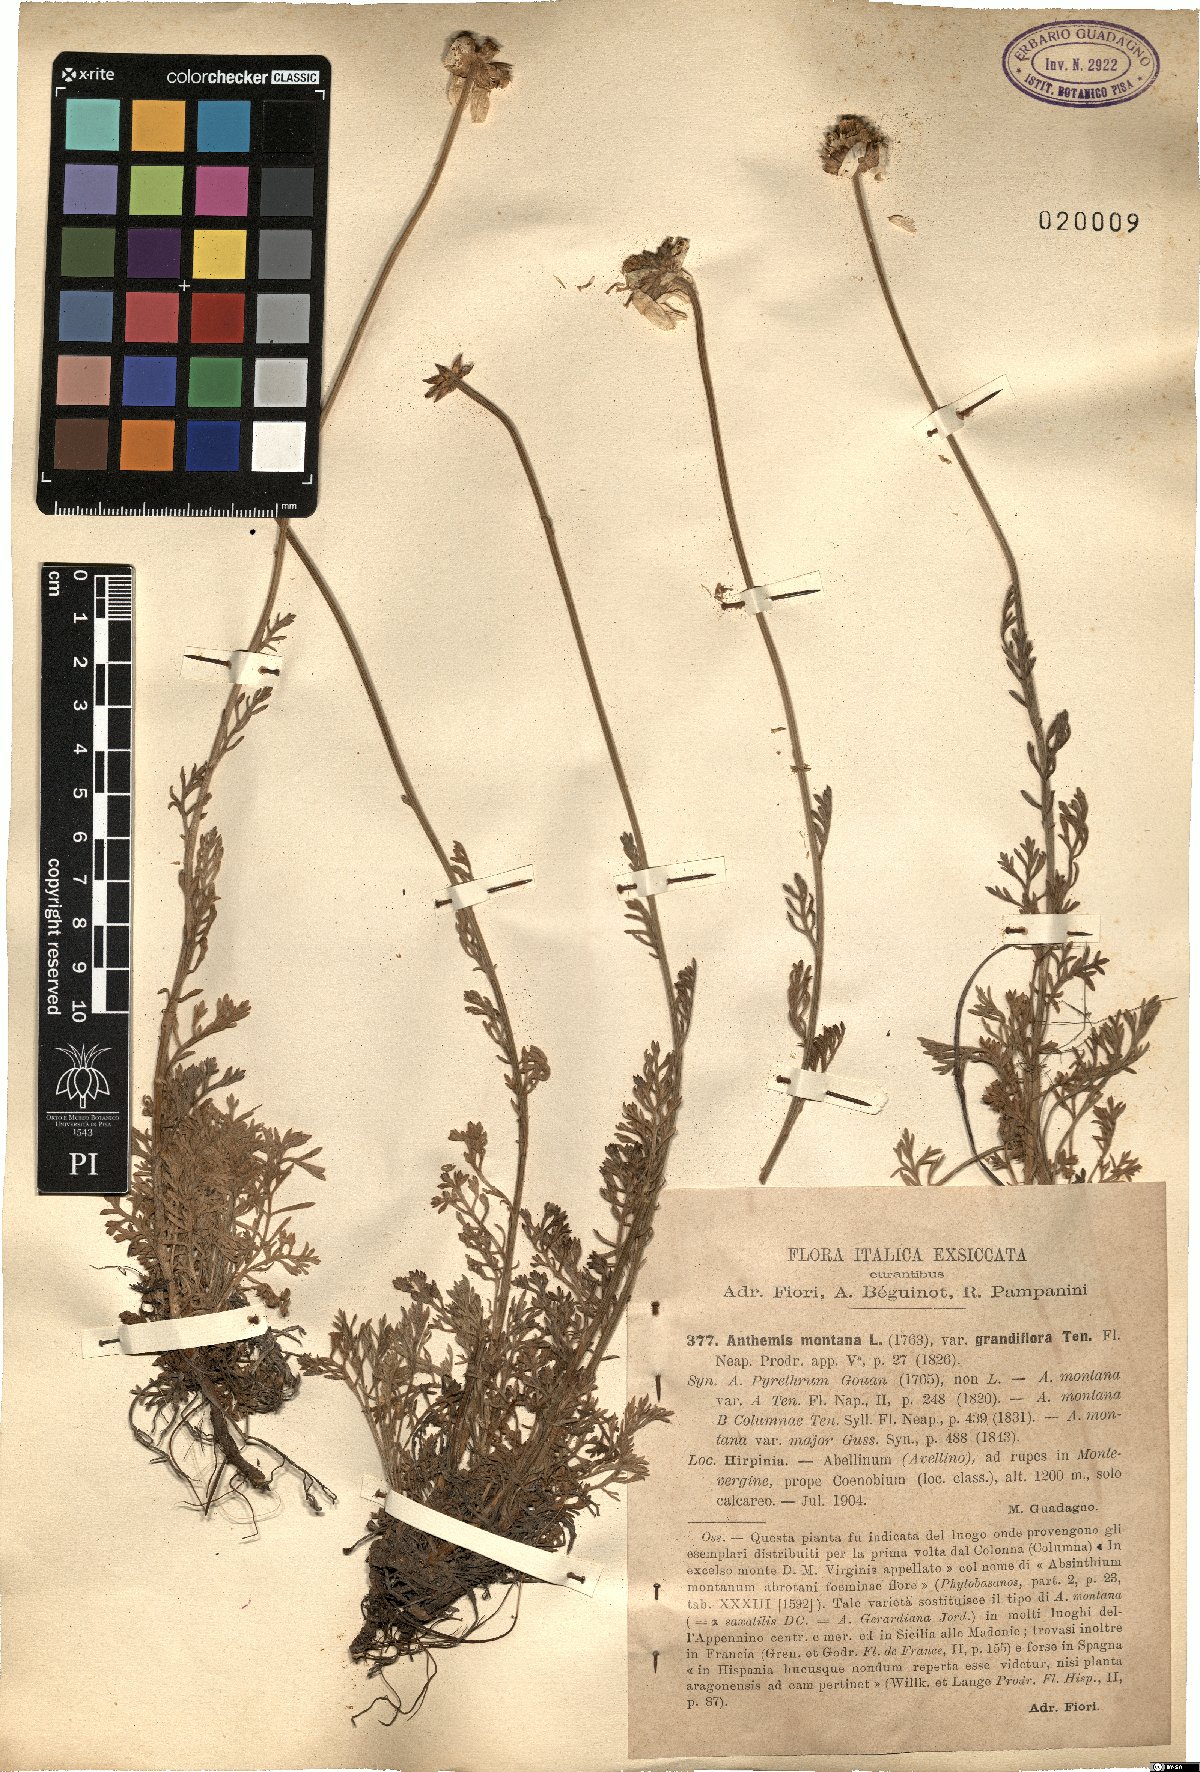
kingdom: Plantae
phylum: Tracheophyta
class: Magnoliopsida
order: Asterales
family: Asteraceae
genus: Anthemis
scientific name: Anthemis cretica
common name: Mountain dog-daisy
